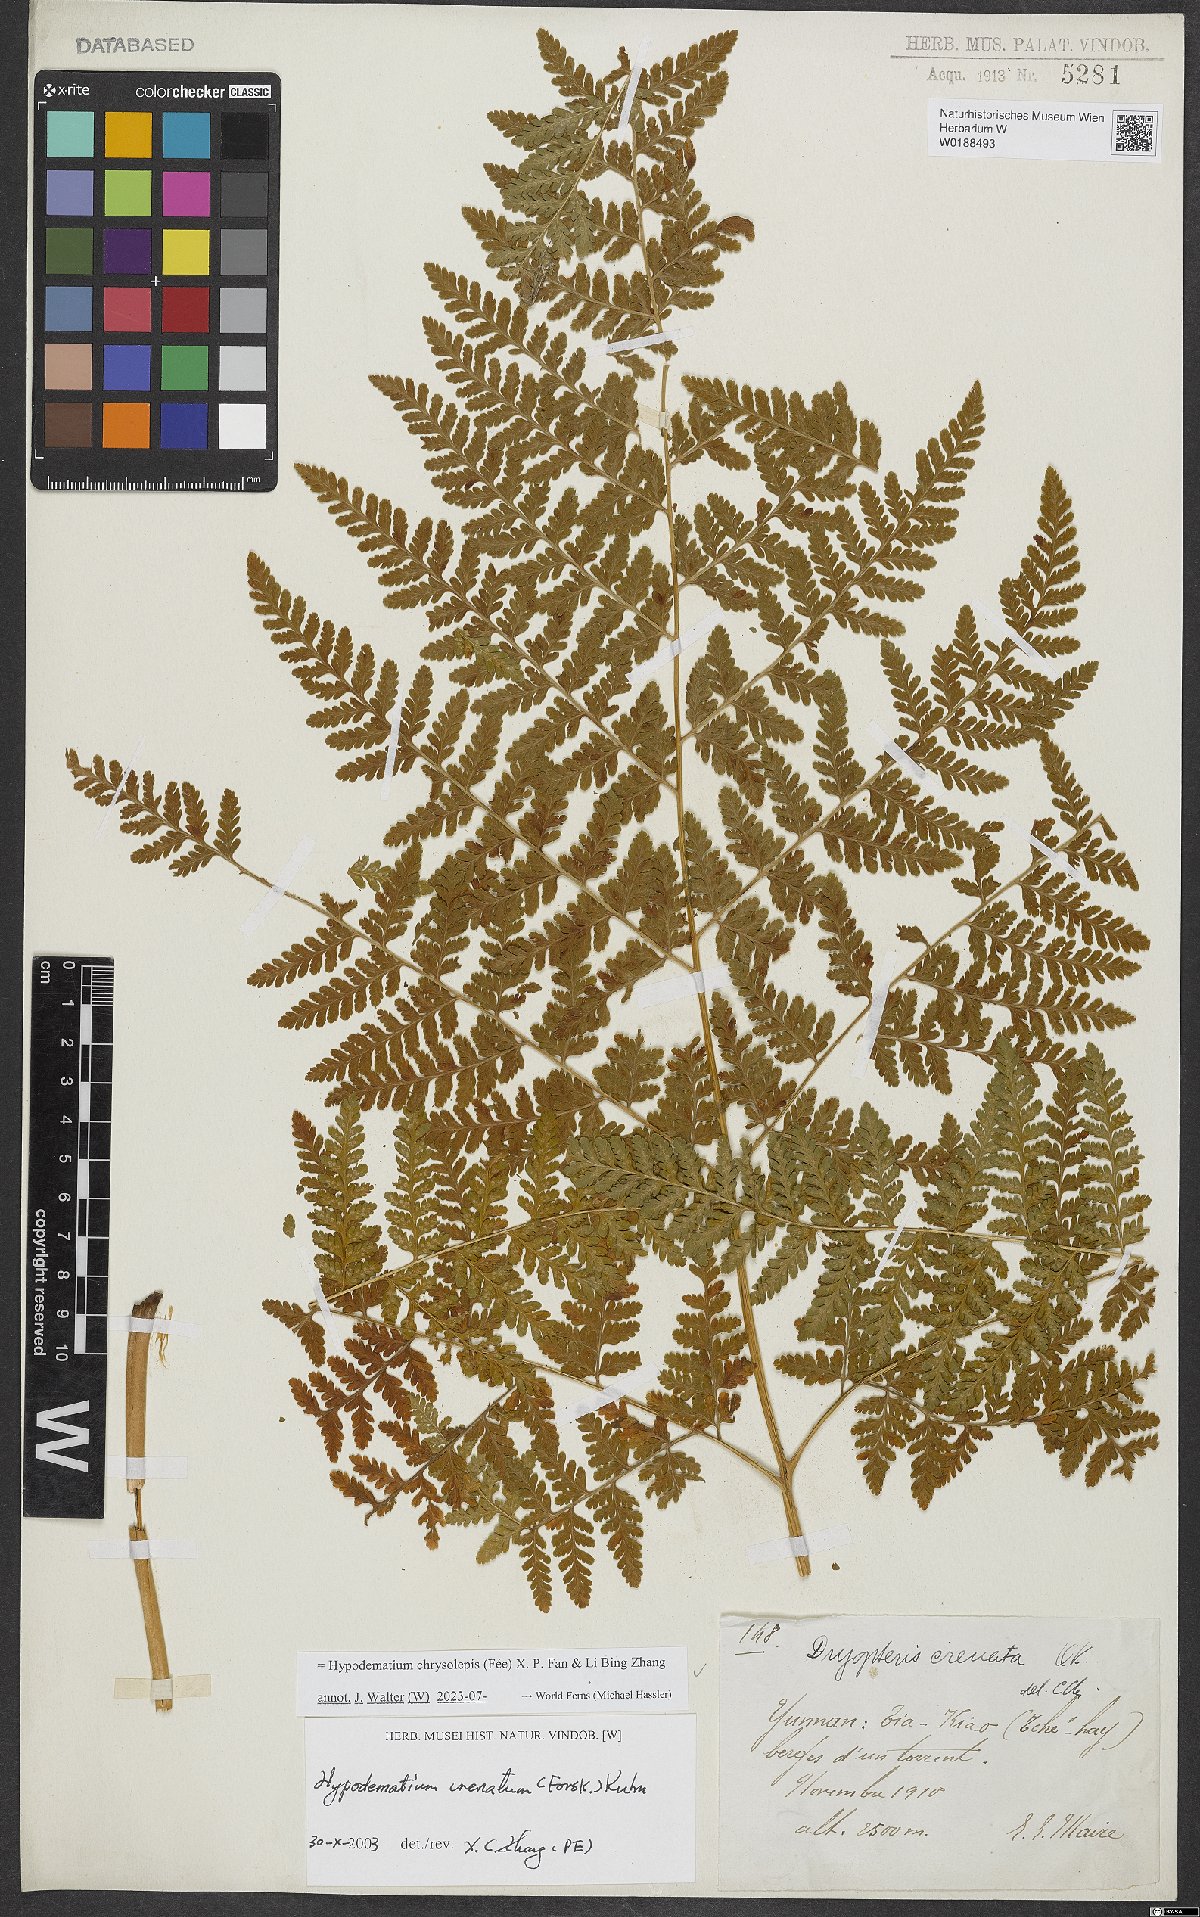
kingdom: Plantae
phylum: Tracheophyta
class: Polypodiopsida
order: Polypodiales
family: Hypodematiaceae
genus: Hypodematium
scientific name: Hypodematium chrysolepis
